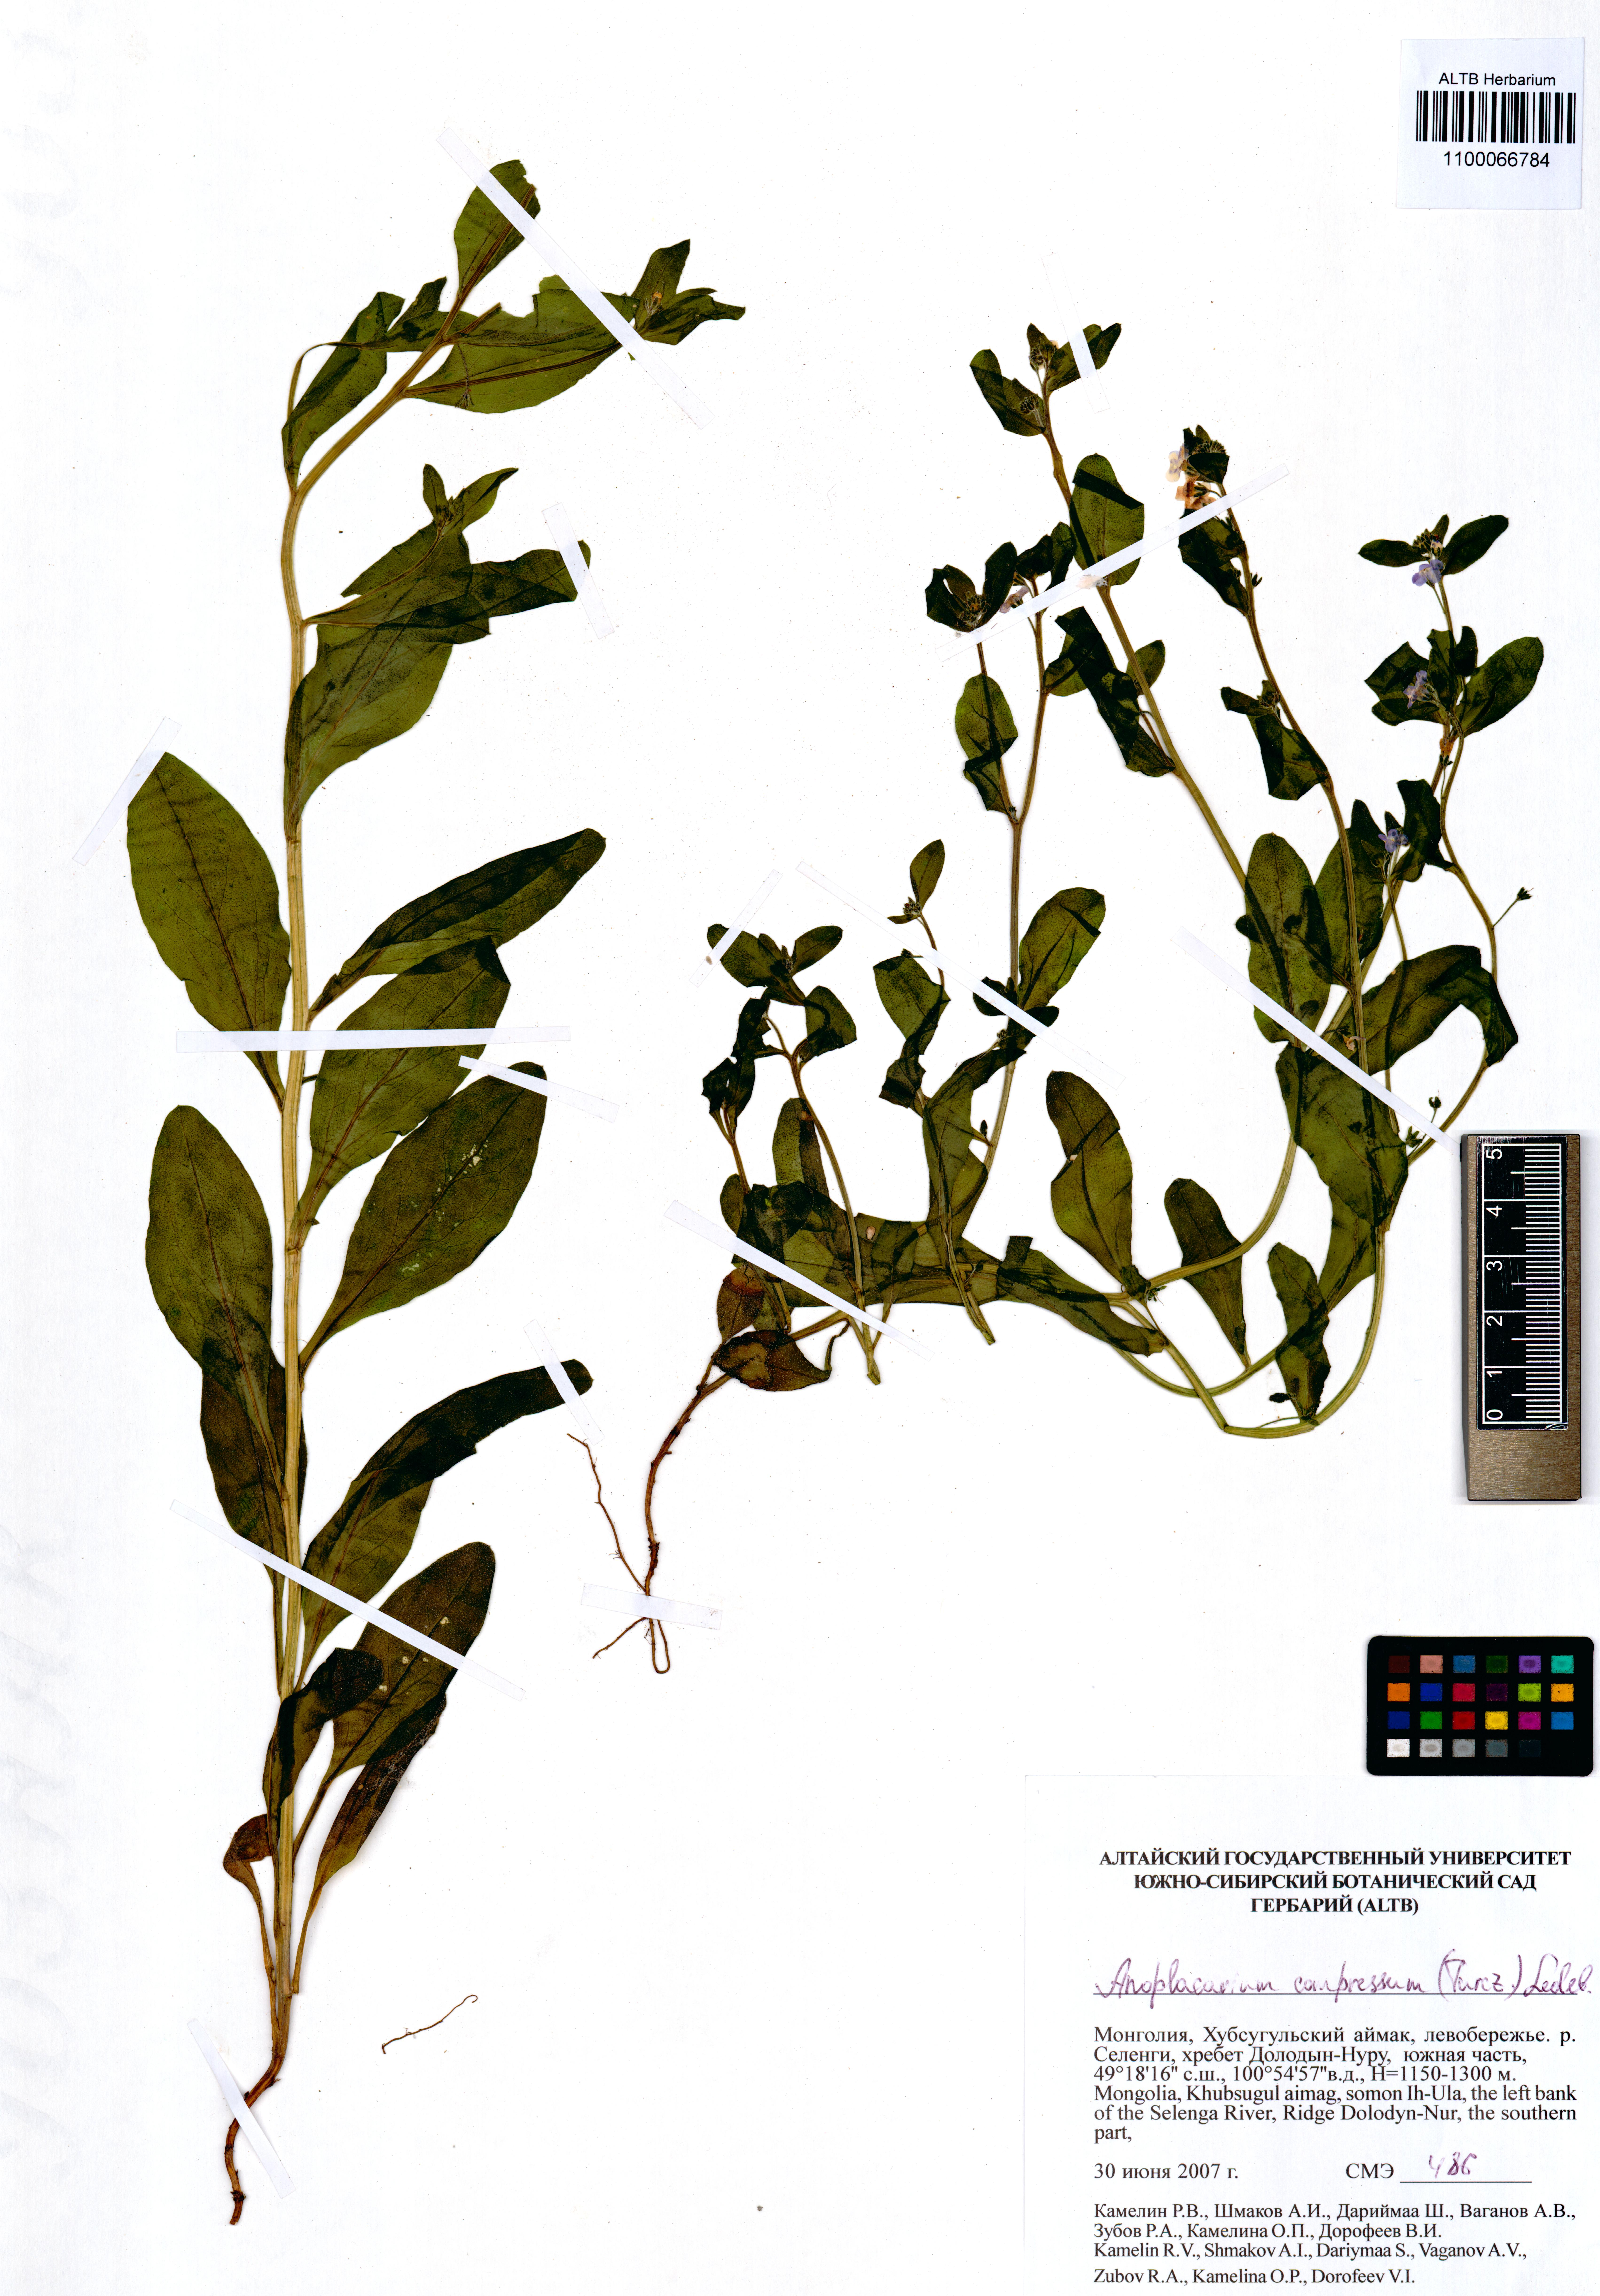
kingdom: Plantae
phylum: Tracheophyta
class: Magnoliopsida
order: Boraginales
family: Boraginaceae
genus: Anoplocaryum
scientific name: Anoplocaryum compressum
